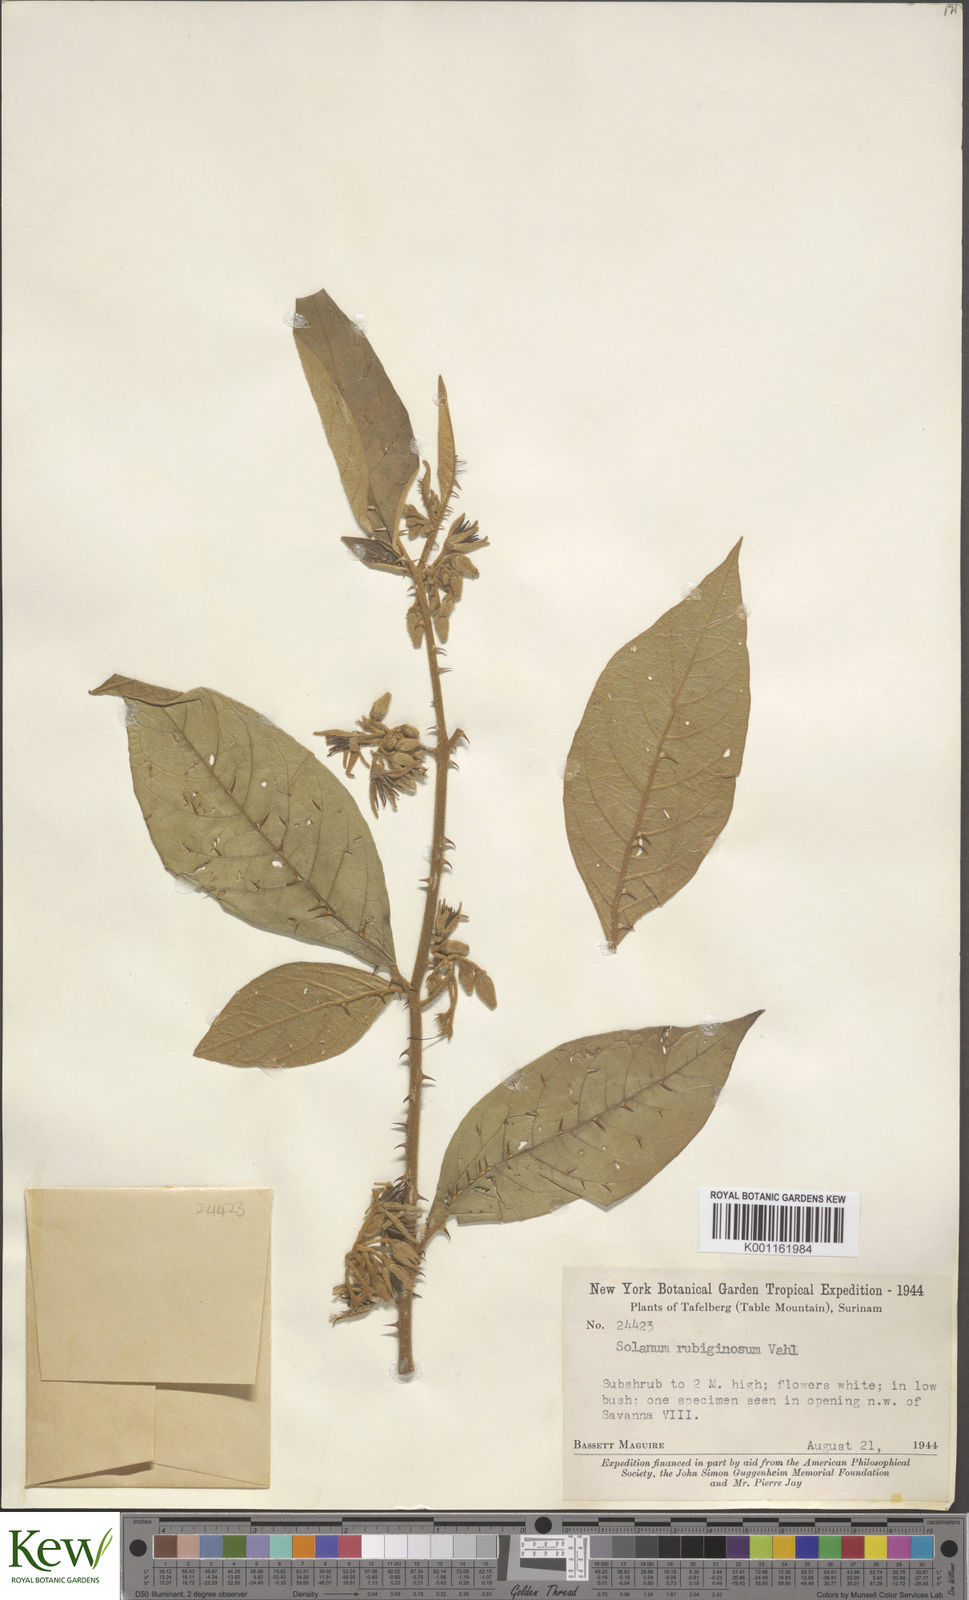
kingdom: Plantae
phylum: Tracheophyta
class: Magnoliopsida
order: Solanales
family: Solanaceae
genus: Solanum
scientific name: Solanum rubiginosum
